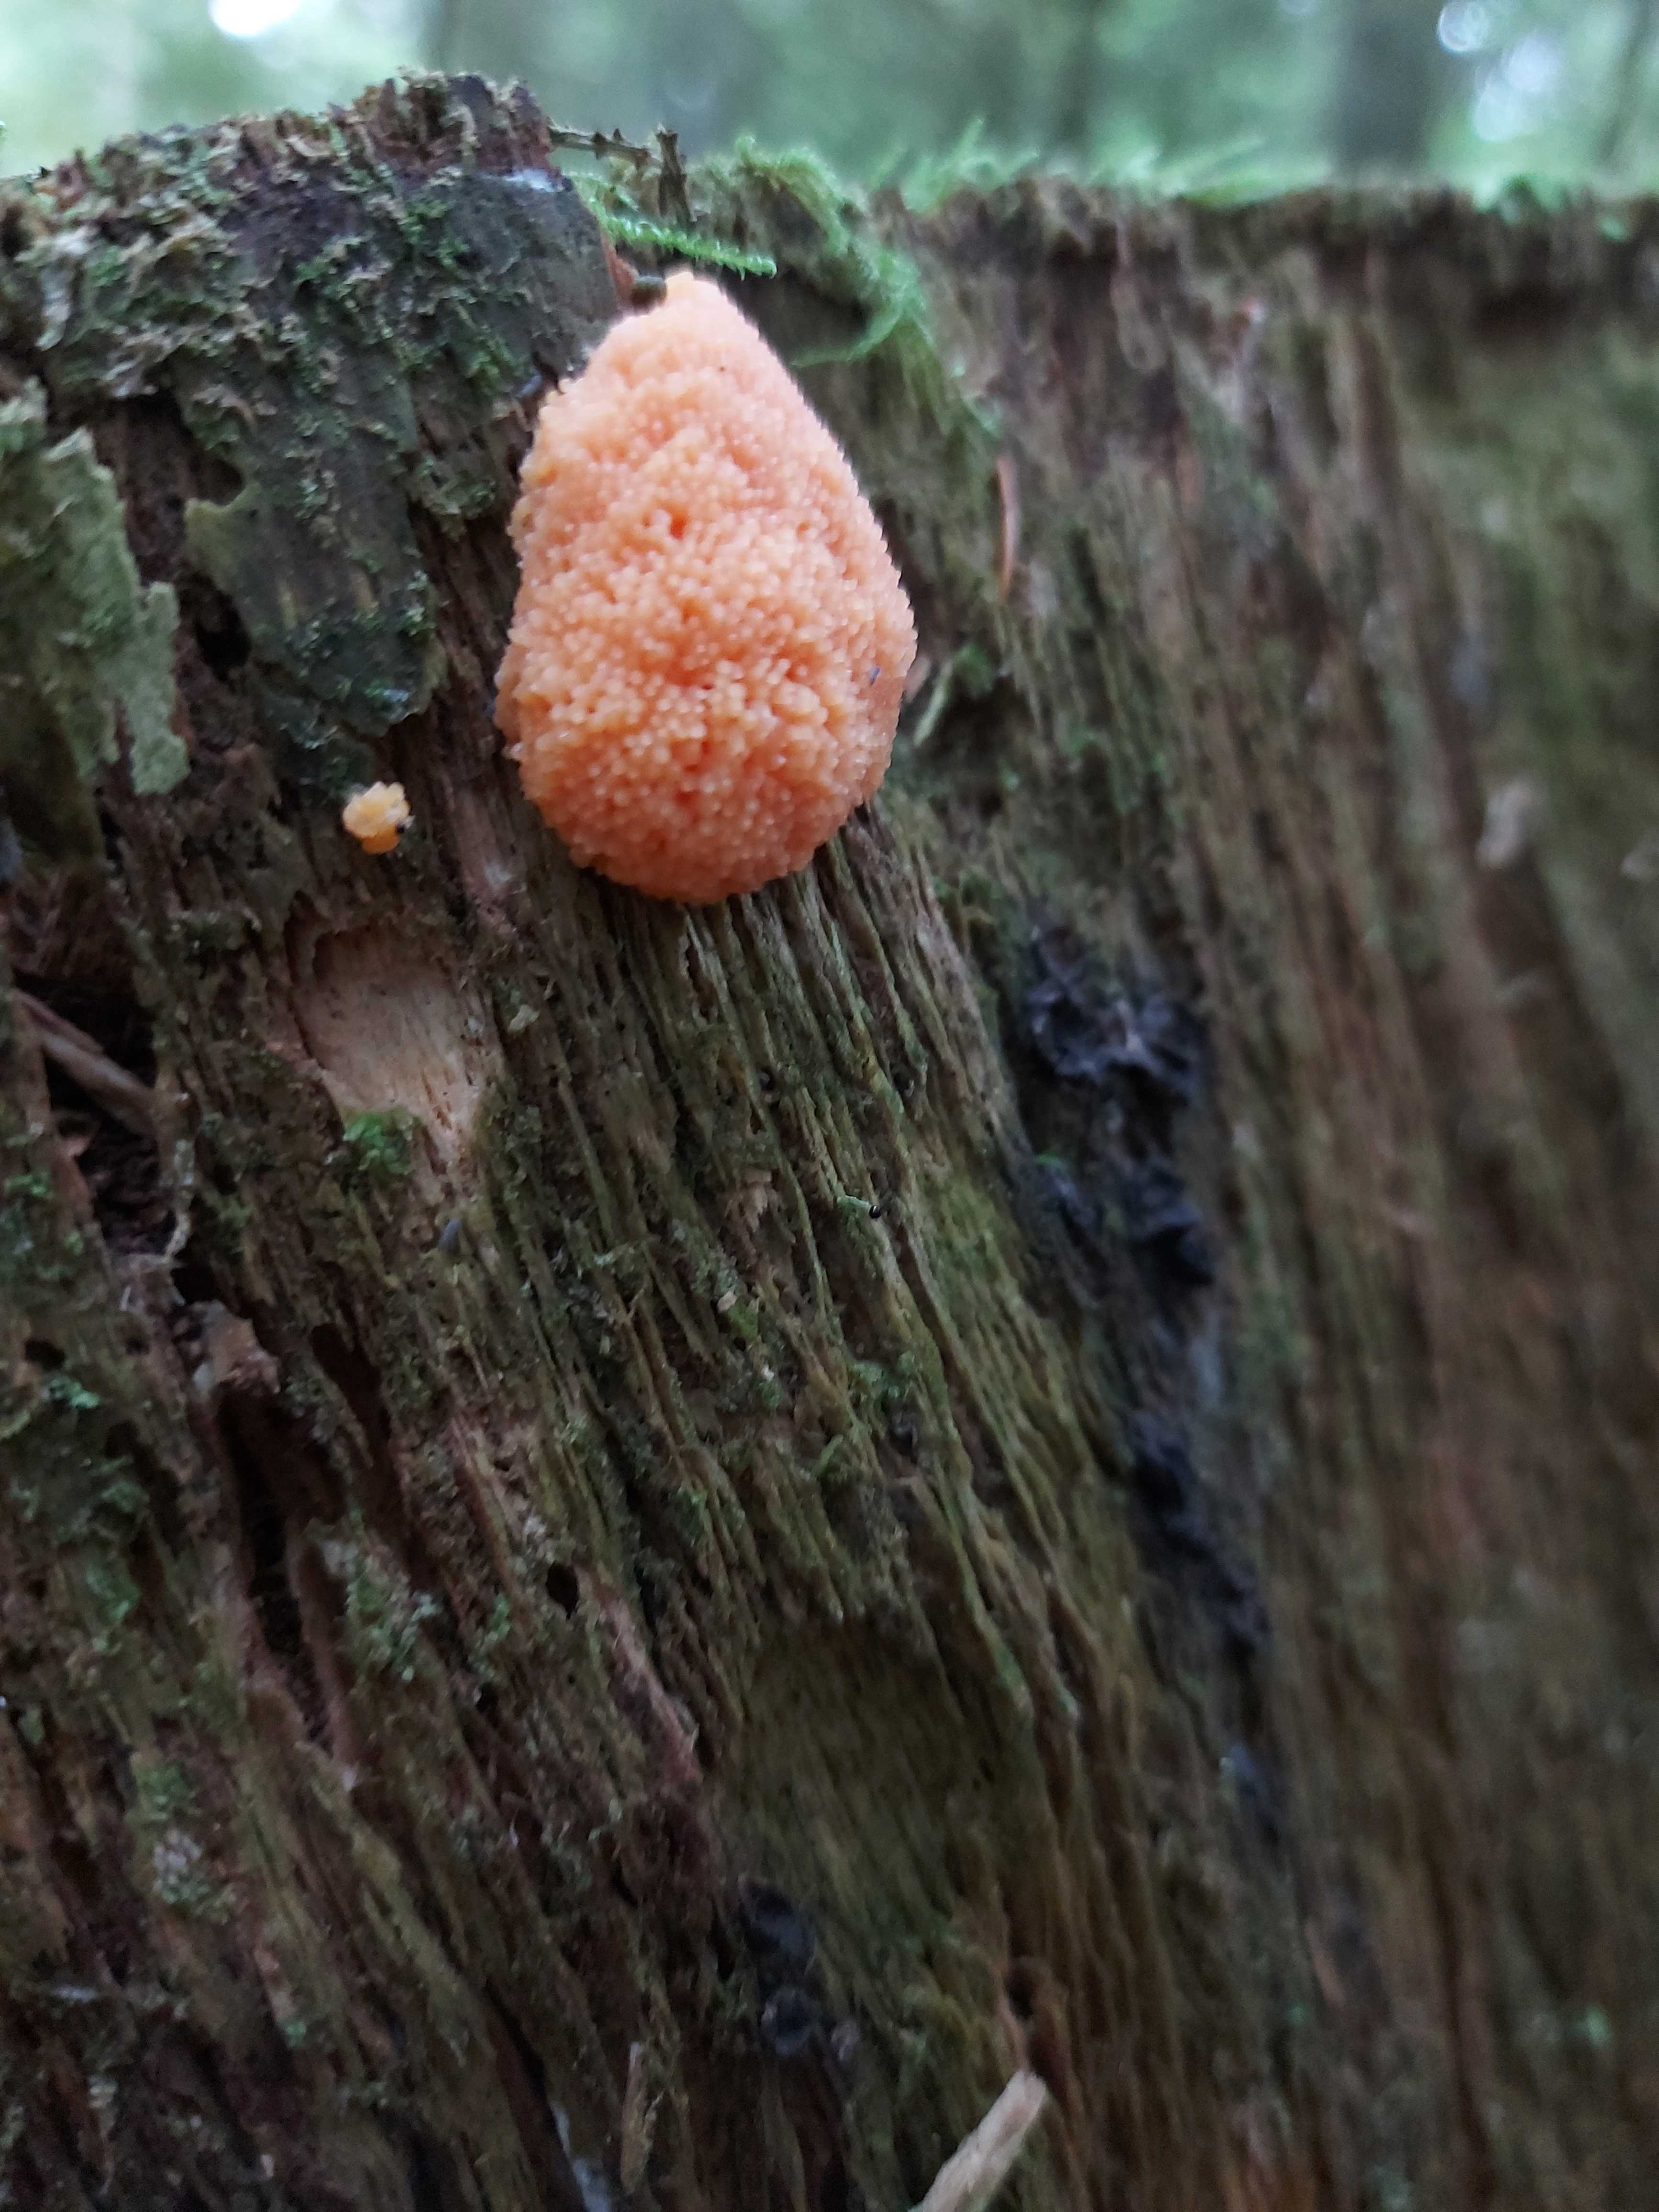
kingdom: Protozoa
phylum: Mycetozoa
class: Myxomycetes
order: Cribrariales
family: Tubiferaceae
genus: Tubifera
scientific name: Tubifera ferruginosa
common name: kanel-støvrør
